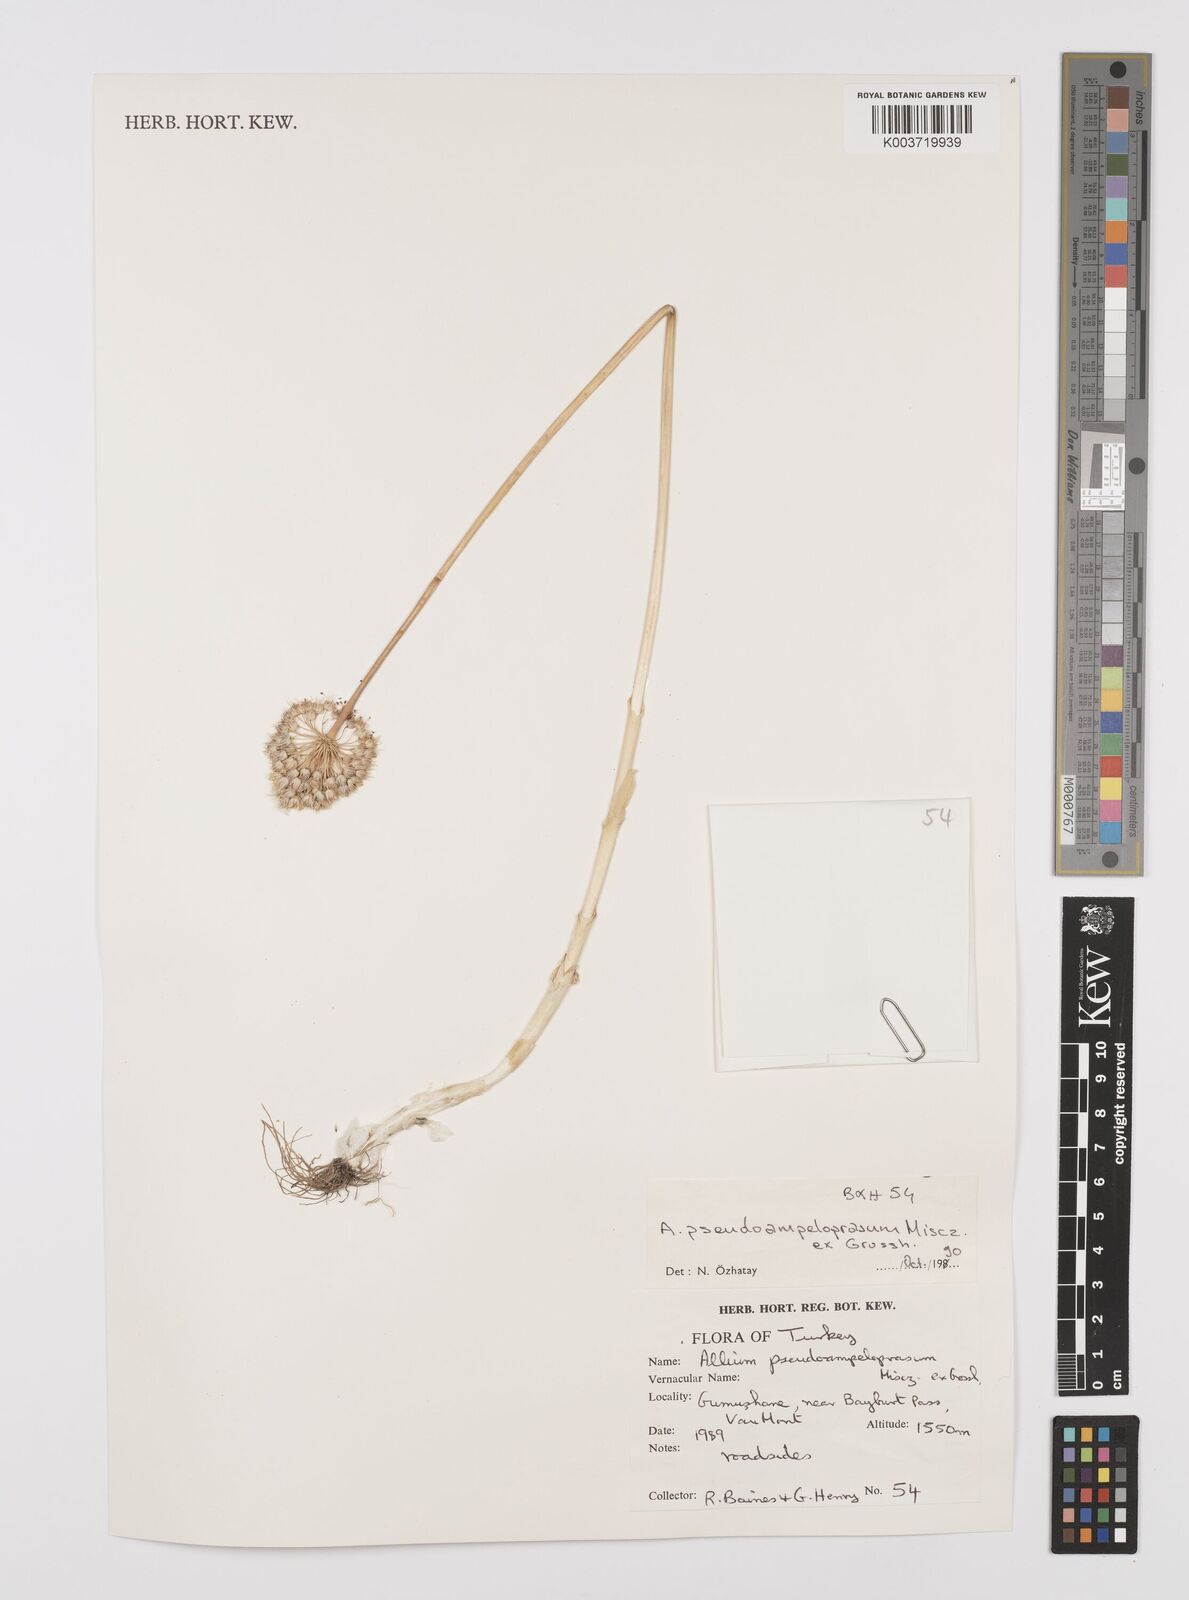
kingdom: Plantae
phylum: Tracheophyta
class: Liliopsida
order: Asparagales
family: Amaryllidaceae
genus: Allium
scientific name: Allium pseudoampeloprasum
